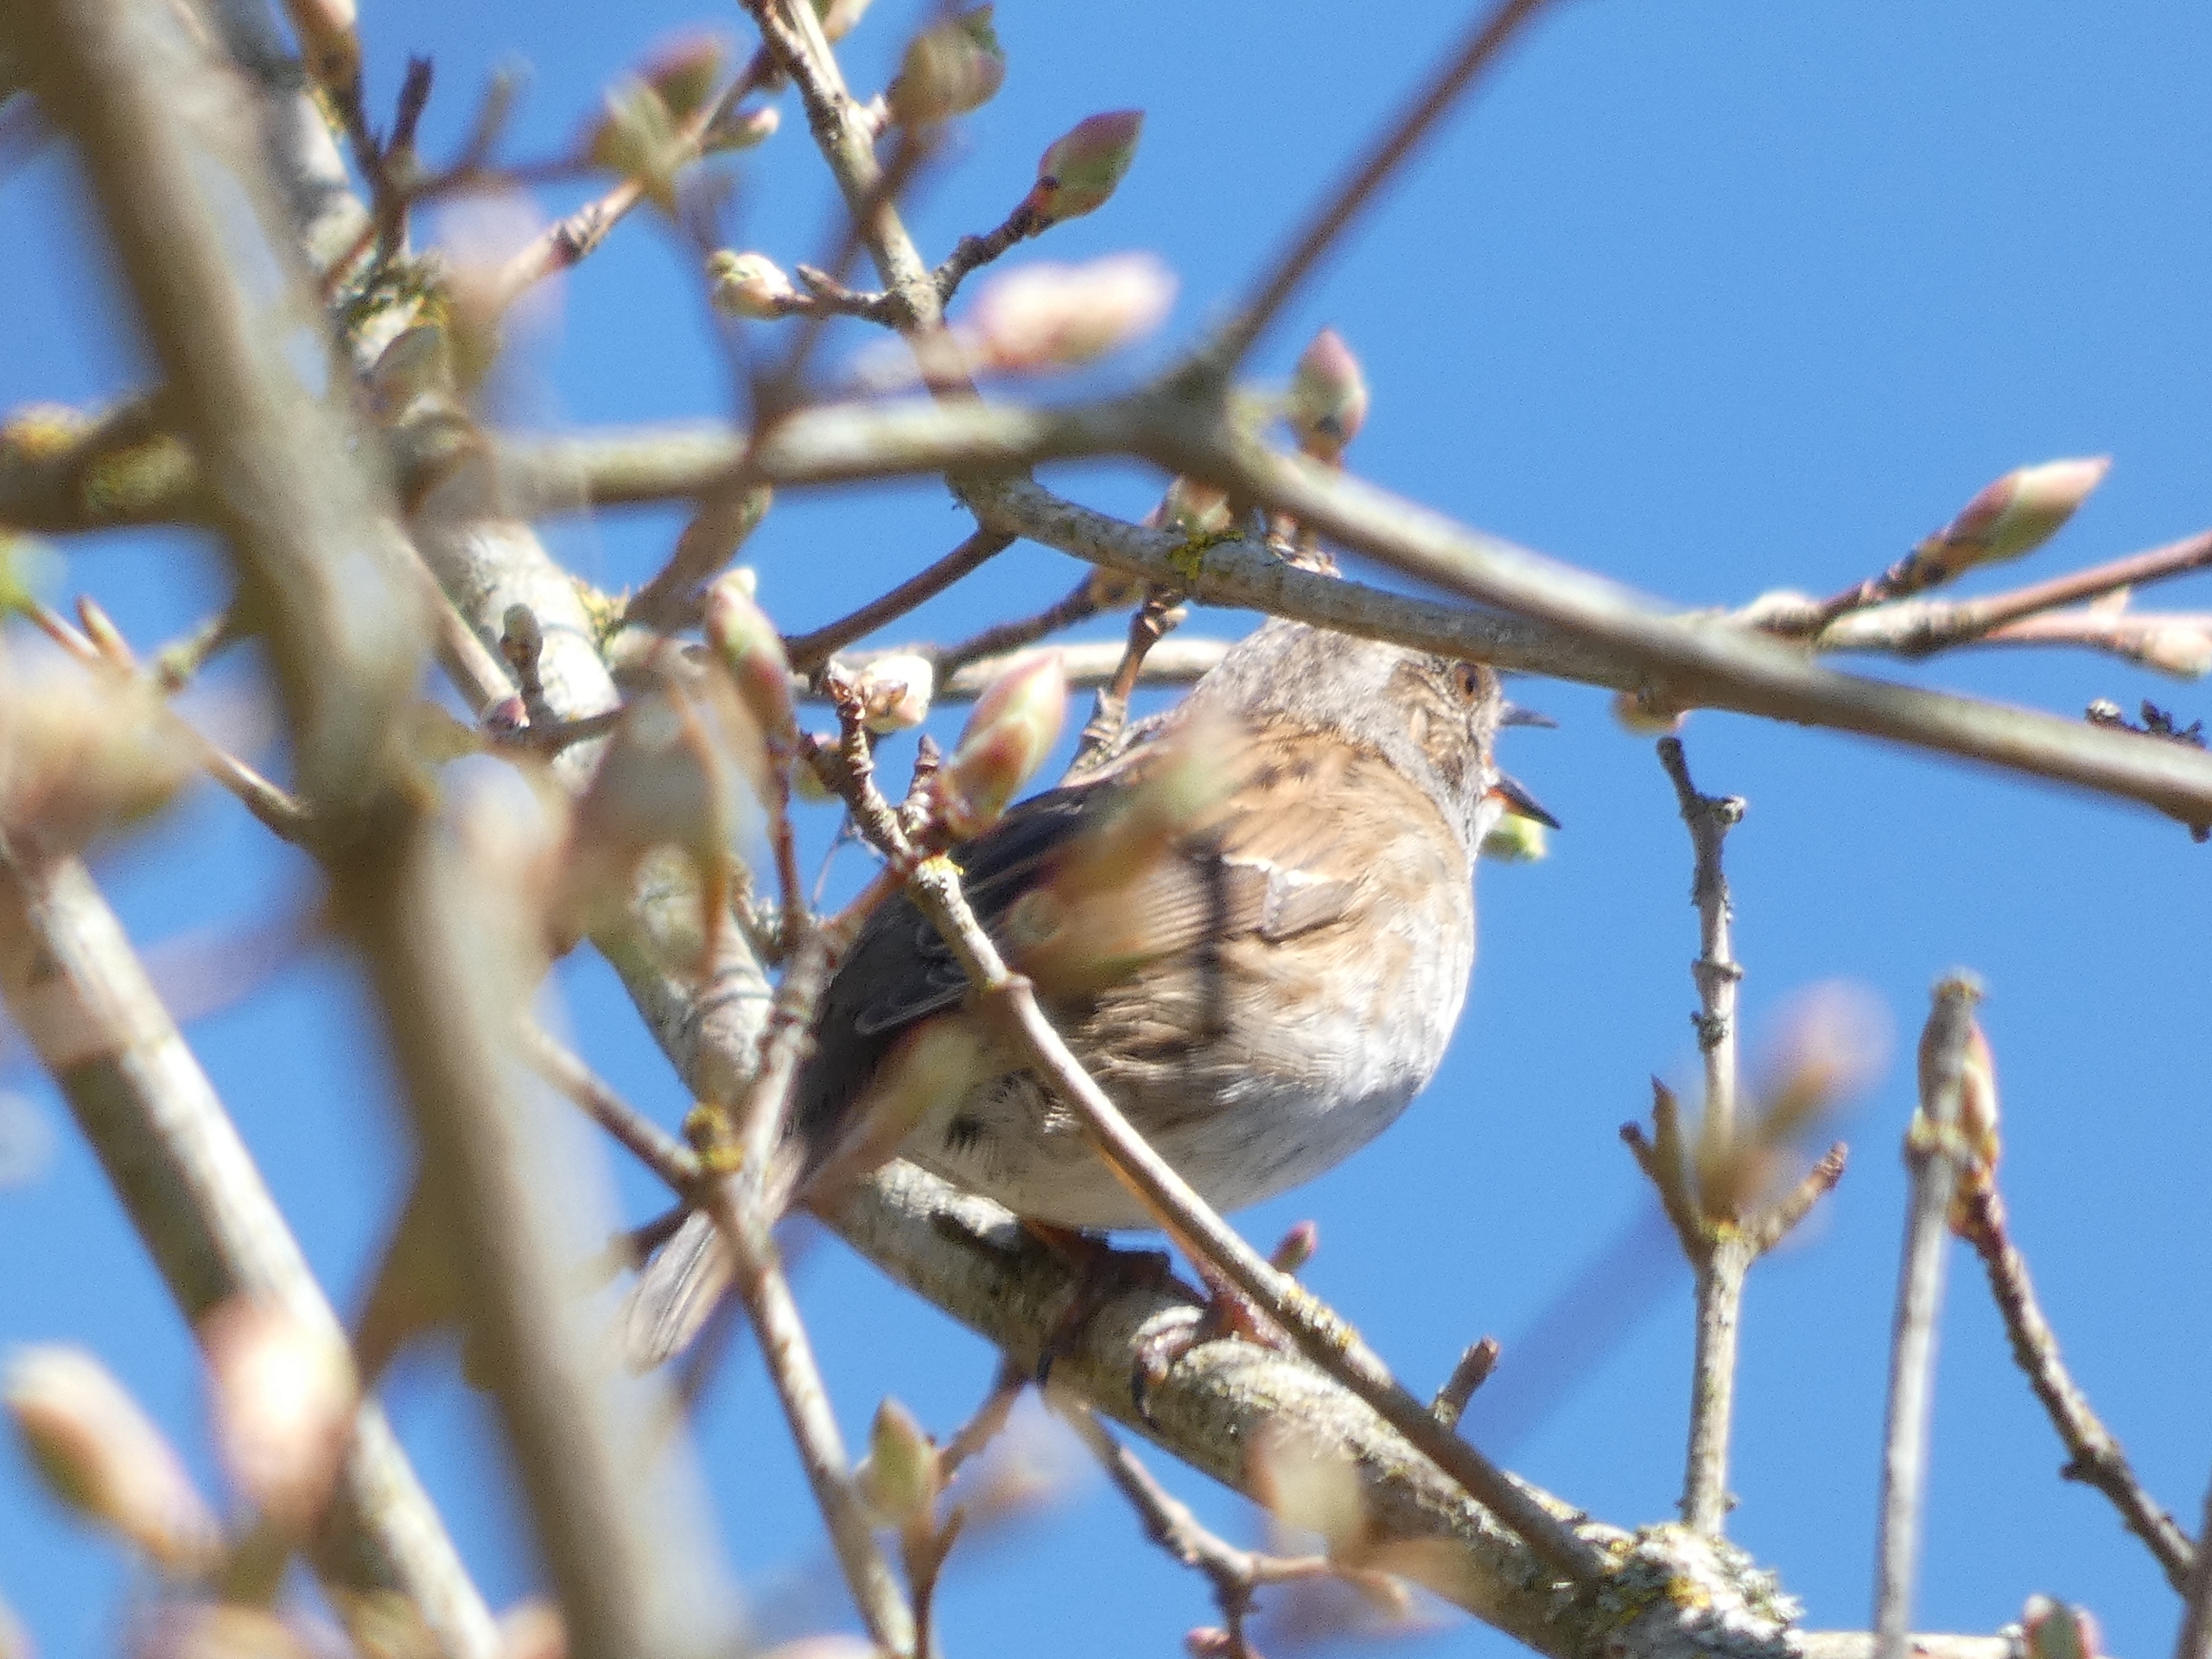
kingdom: Animalia
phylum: Chordata
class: Aves
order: Passeriformes
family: Prunellidae
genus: Prunella
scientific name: Prunella modularis
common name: Jernspurv
